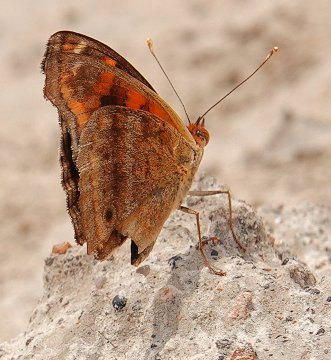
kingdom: Animalia
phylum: Arthropoda
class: Insecta
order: Lepidoptera
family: Nymphalidae
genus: Junonia
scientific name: Junonia lavinia
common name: Tropical Buckeye
